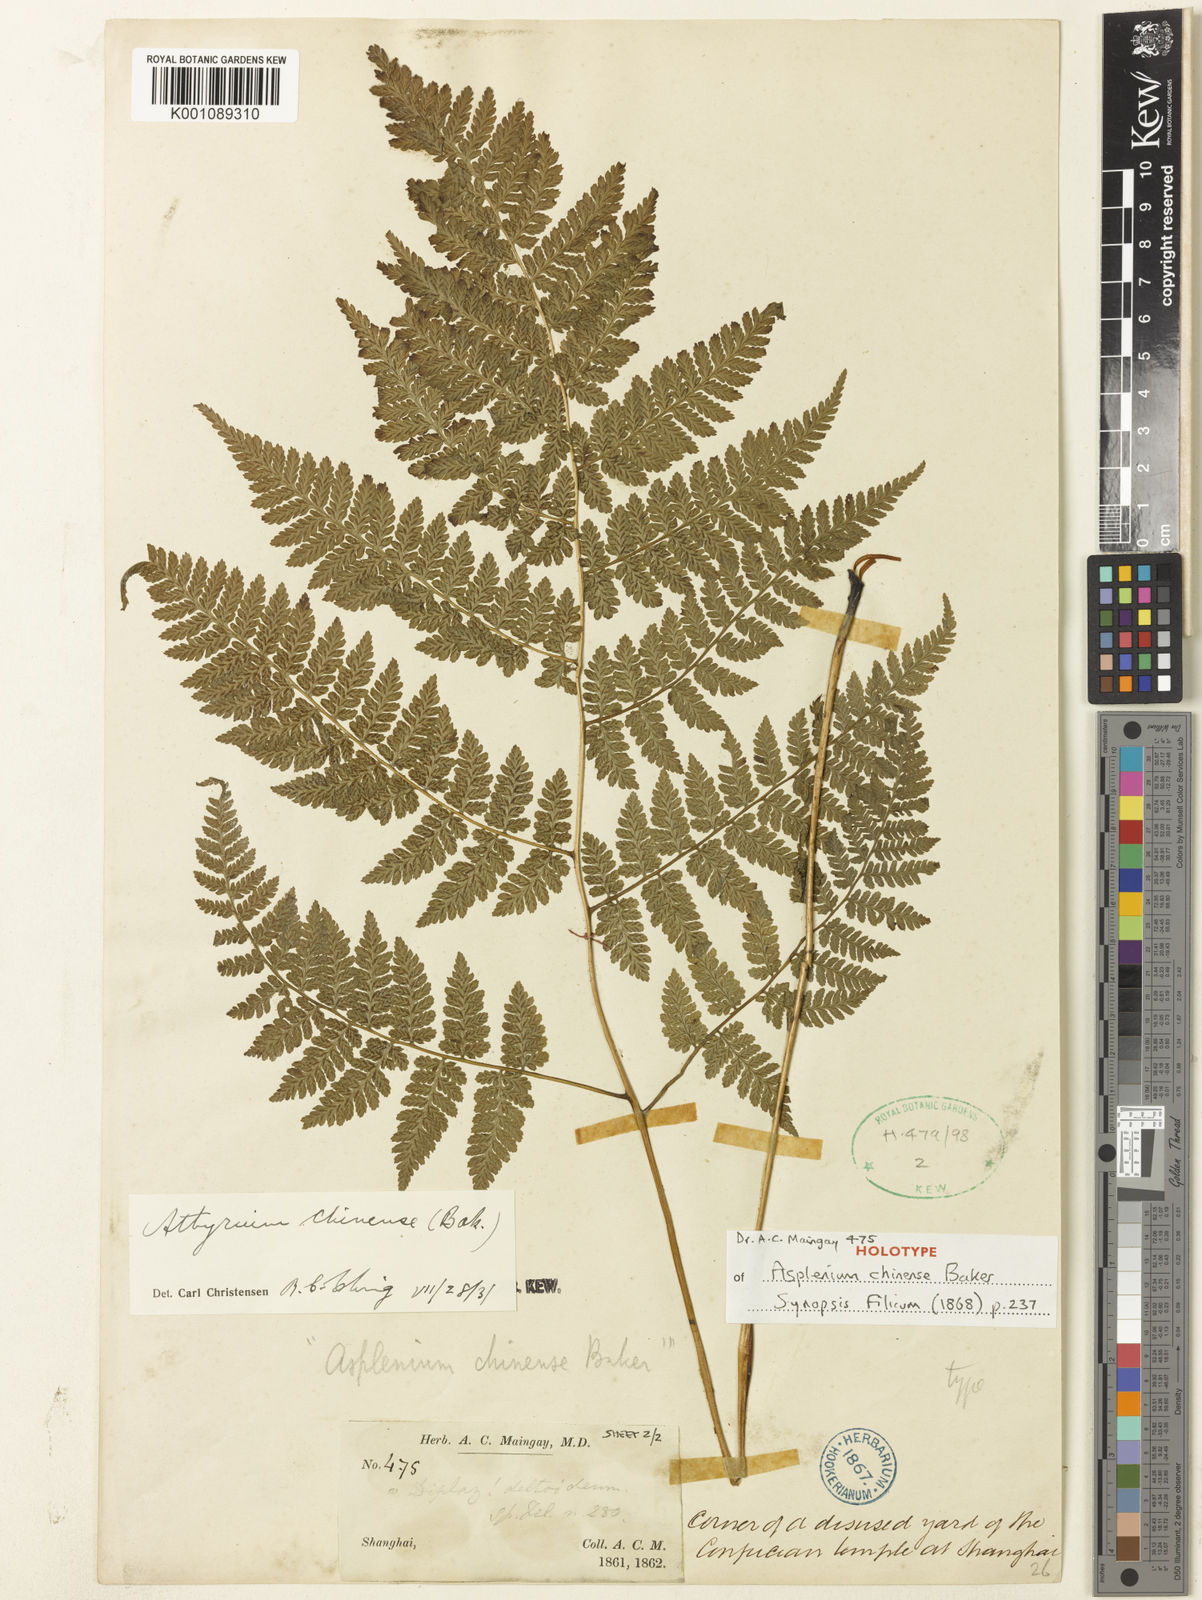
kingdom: Plantae
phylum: Tracheophyta
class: Polypodiopsida
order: Polypodiales
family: Athyriaceae
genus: Diplazium
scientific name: Diplazium chinense
